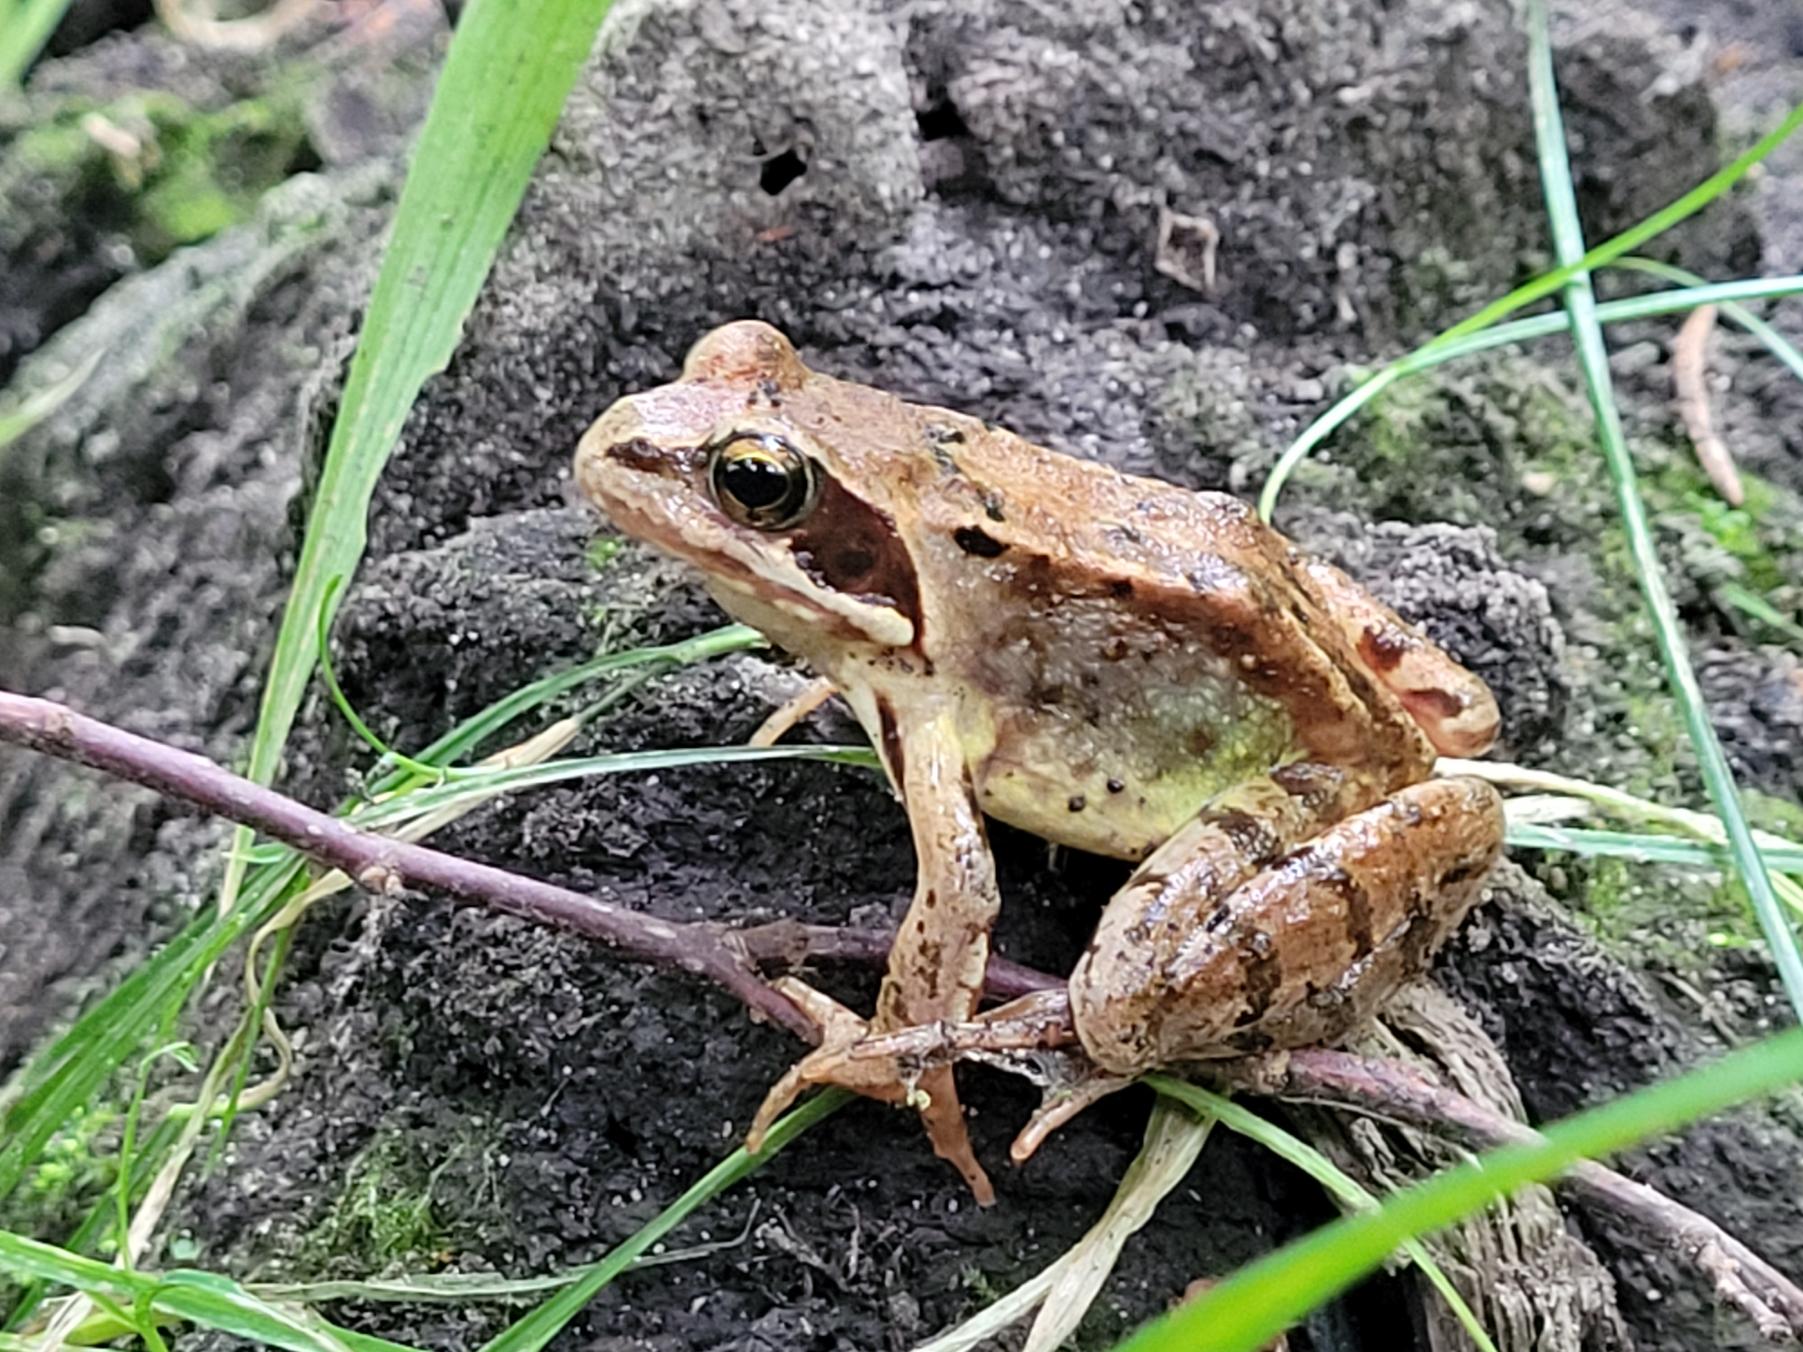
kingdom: Animalia
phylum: Chordata
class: Amphibia
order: Anura
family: Ranidae
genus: Rana
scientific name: Rana temporaria
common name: Butsnudet frø
